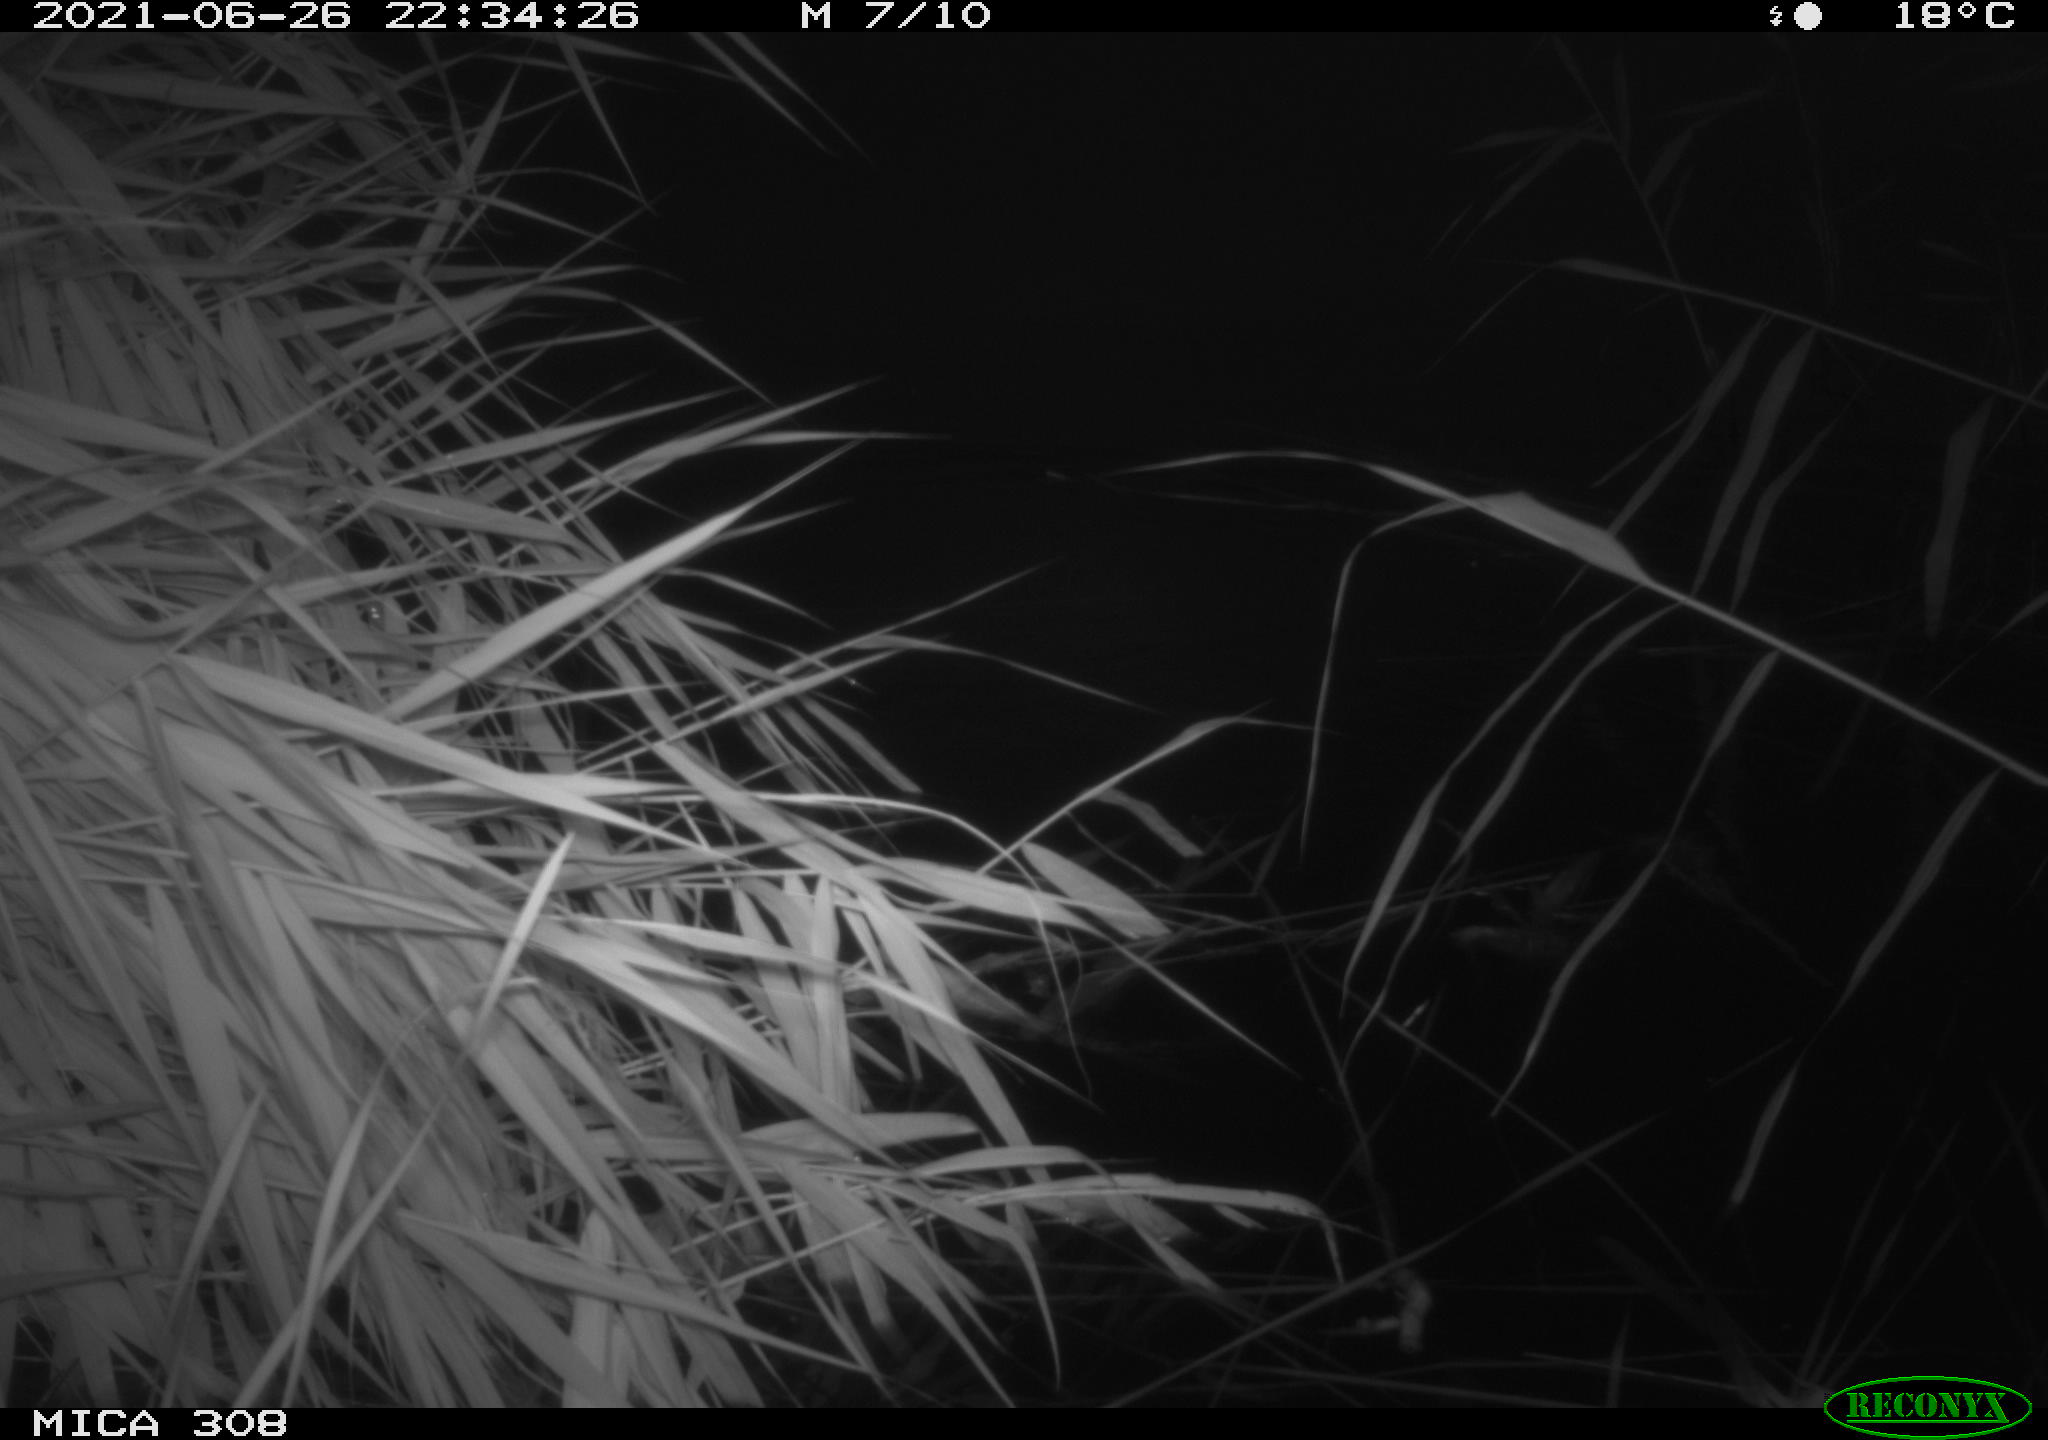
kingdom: Animalia
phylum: Chordata
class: Aves
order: Anseriformes
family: Anatidae
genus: Anas
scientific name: Anas platyrhynchos
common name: Mallard
